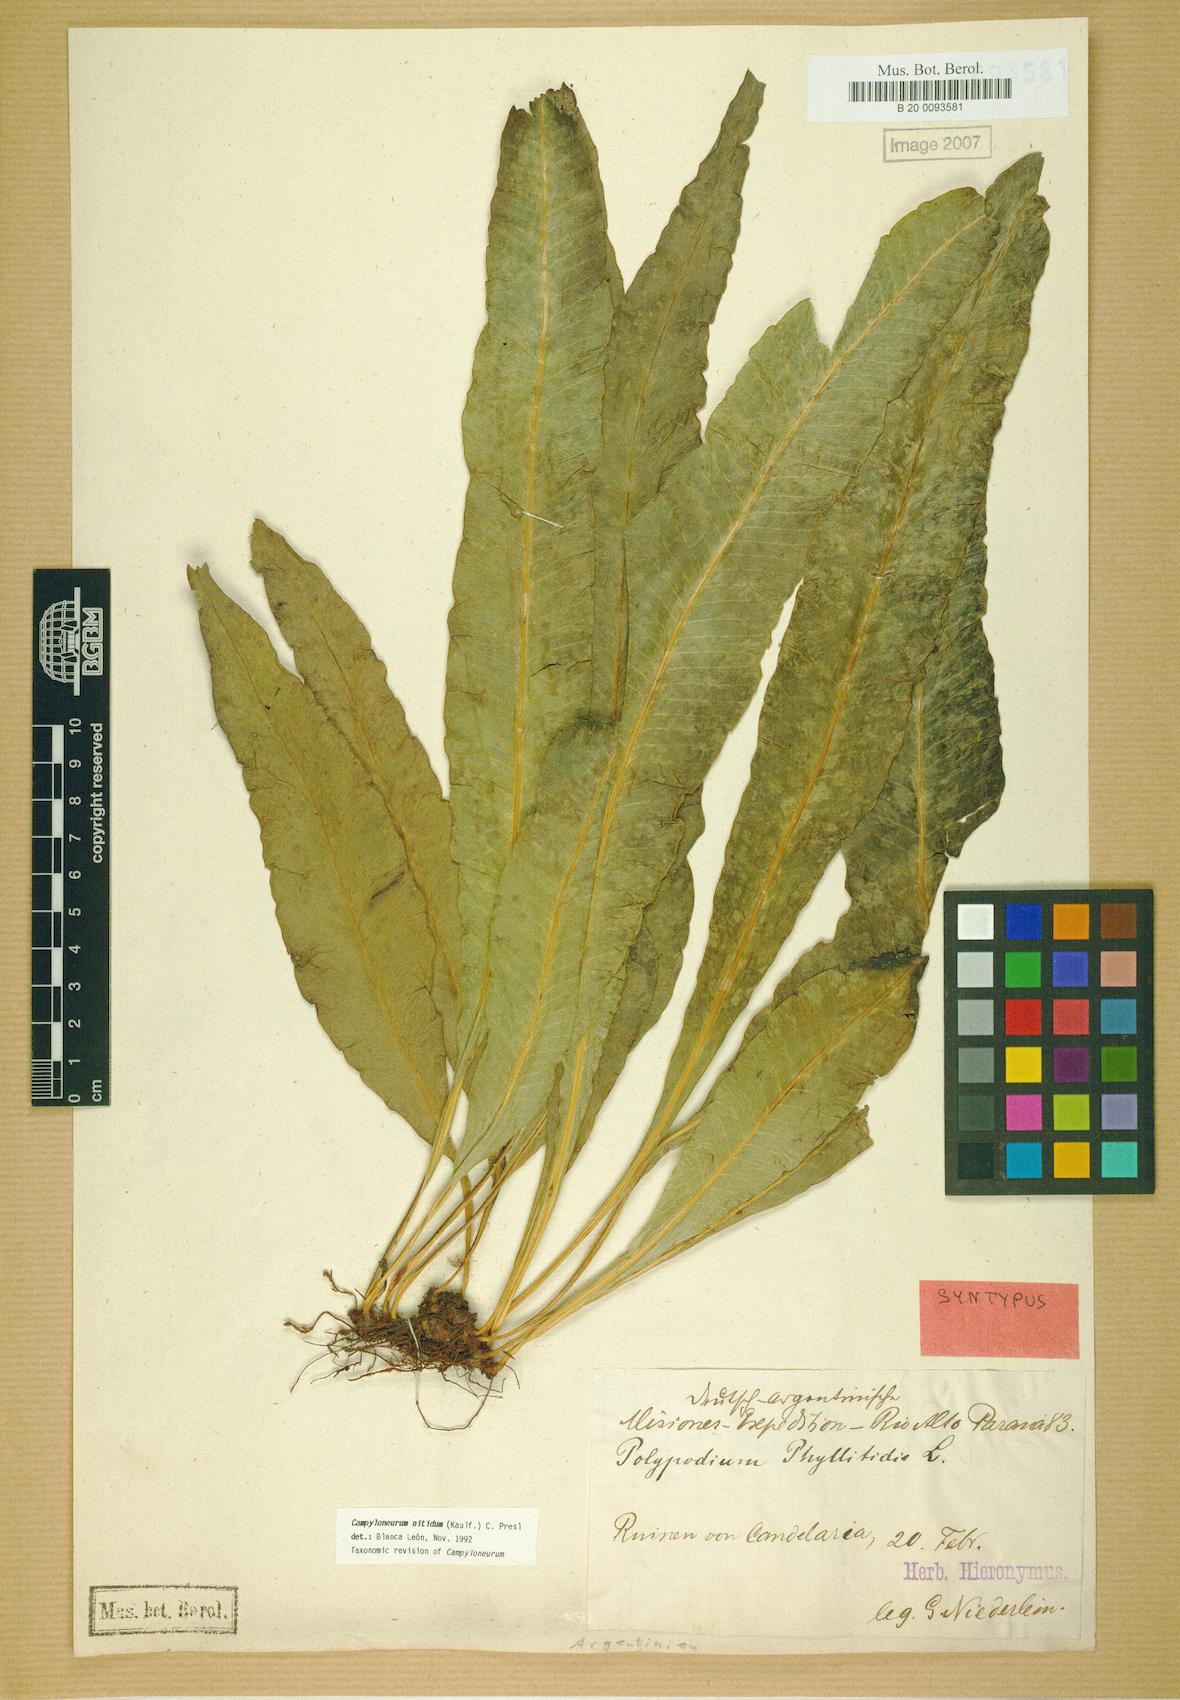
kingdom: Plantae
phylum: Tracheophyta
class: Polypodiopsida
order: Polypodiales
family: Polypodiaceae
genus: Campyloneurum
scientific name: Campyloneurum nitidum
